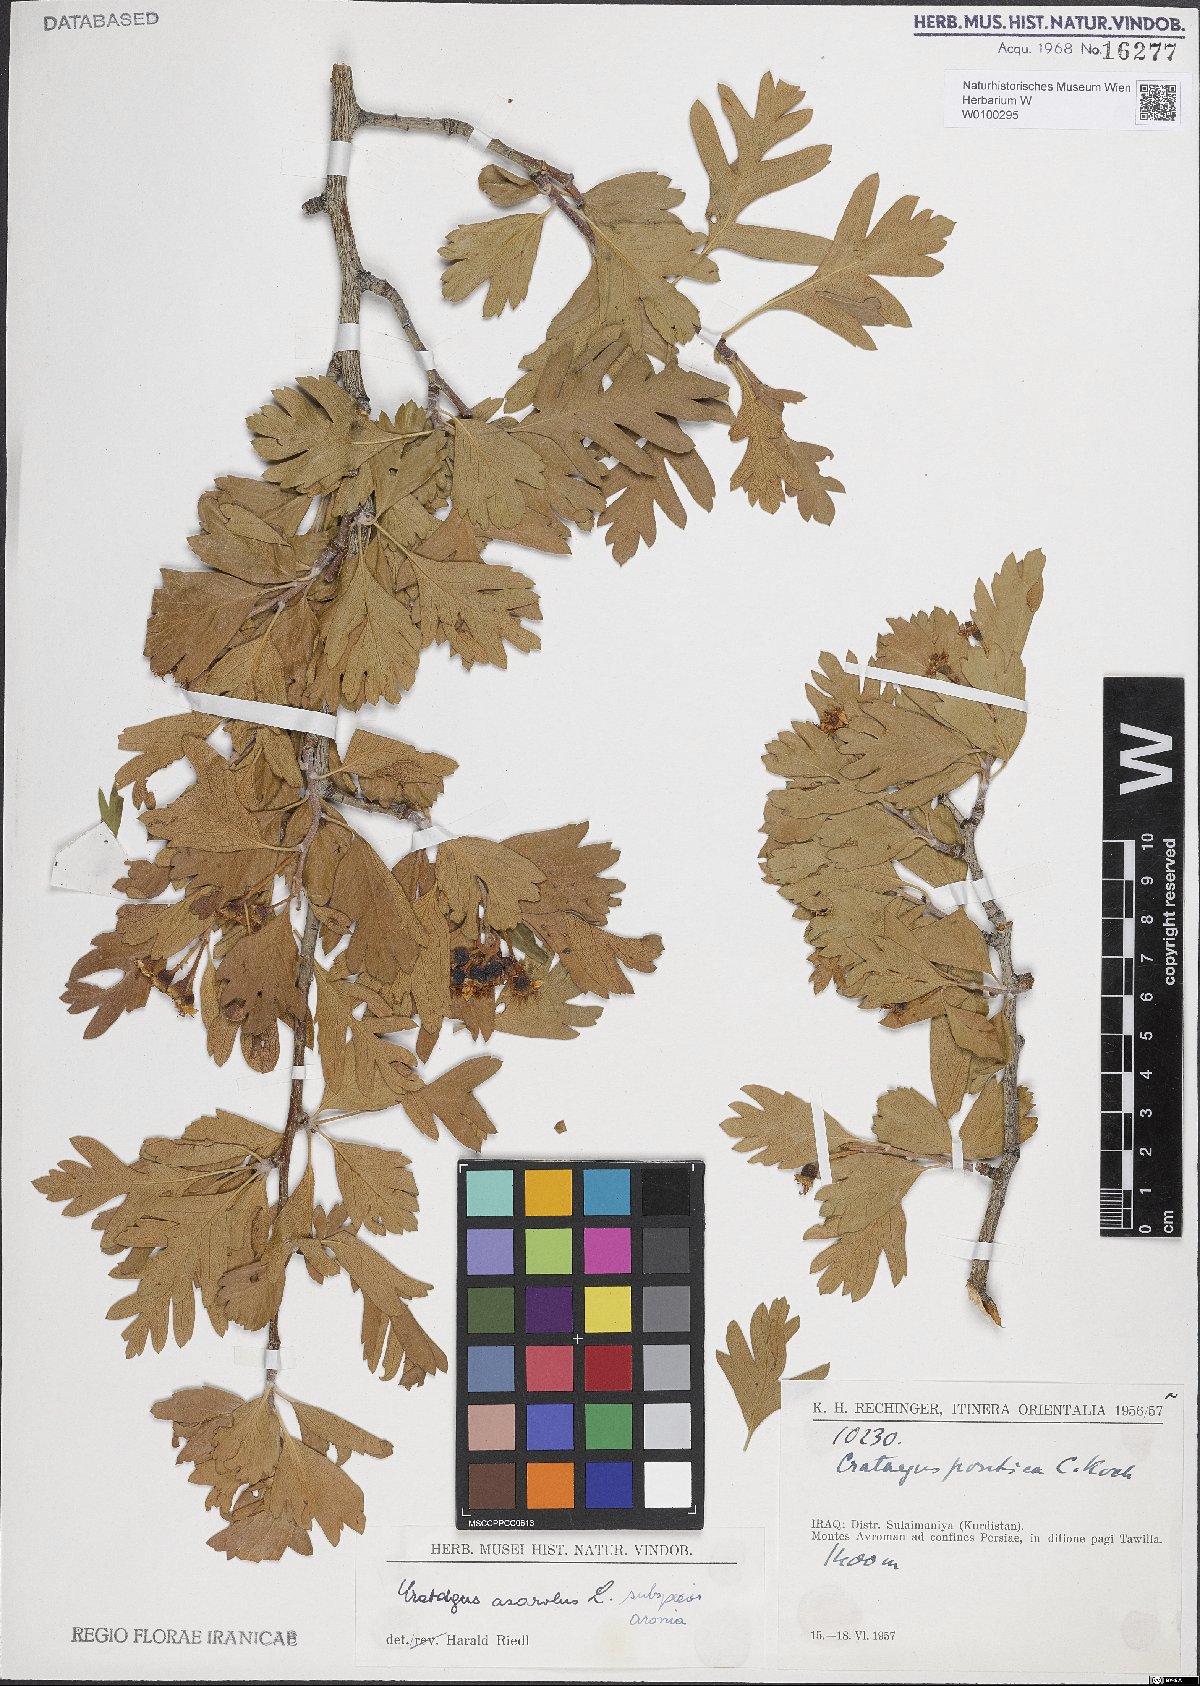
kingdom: Plantae
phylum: Tracheophyta
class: Magnoliopsida
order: Rosales
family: Rosaceae
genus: Crataegus
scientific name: Crataegus azarolus
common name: Azarole
